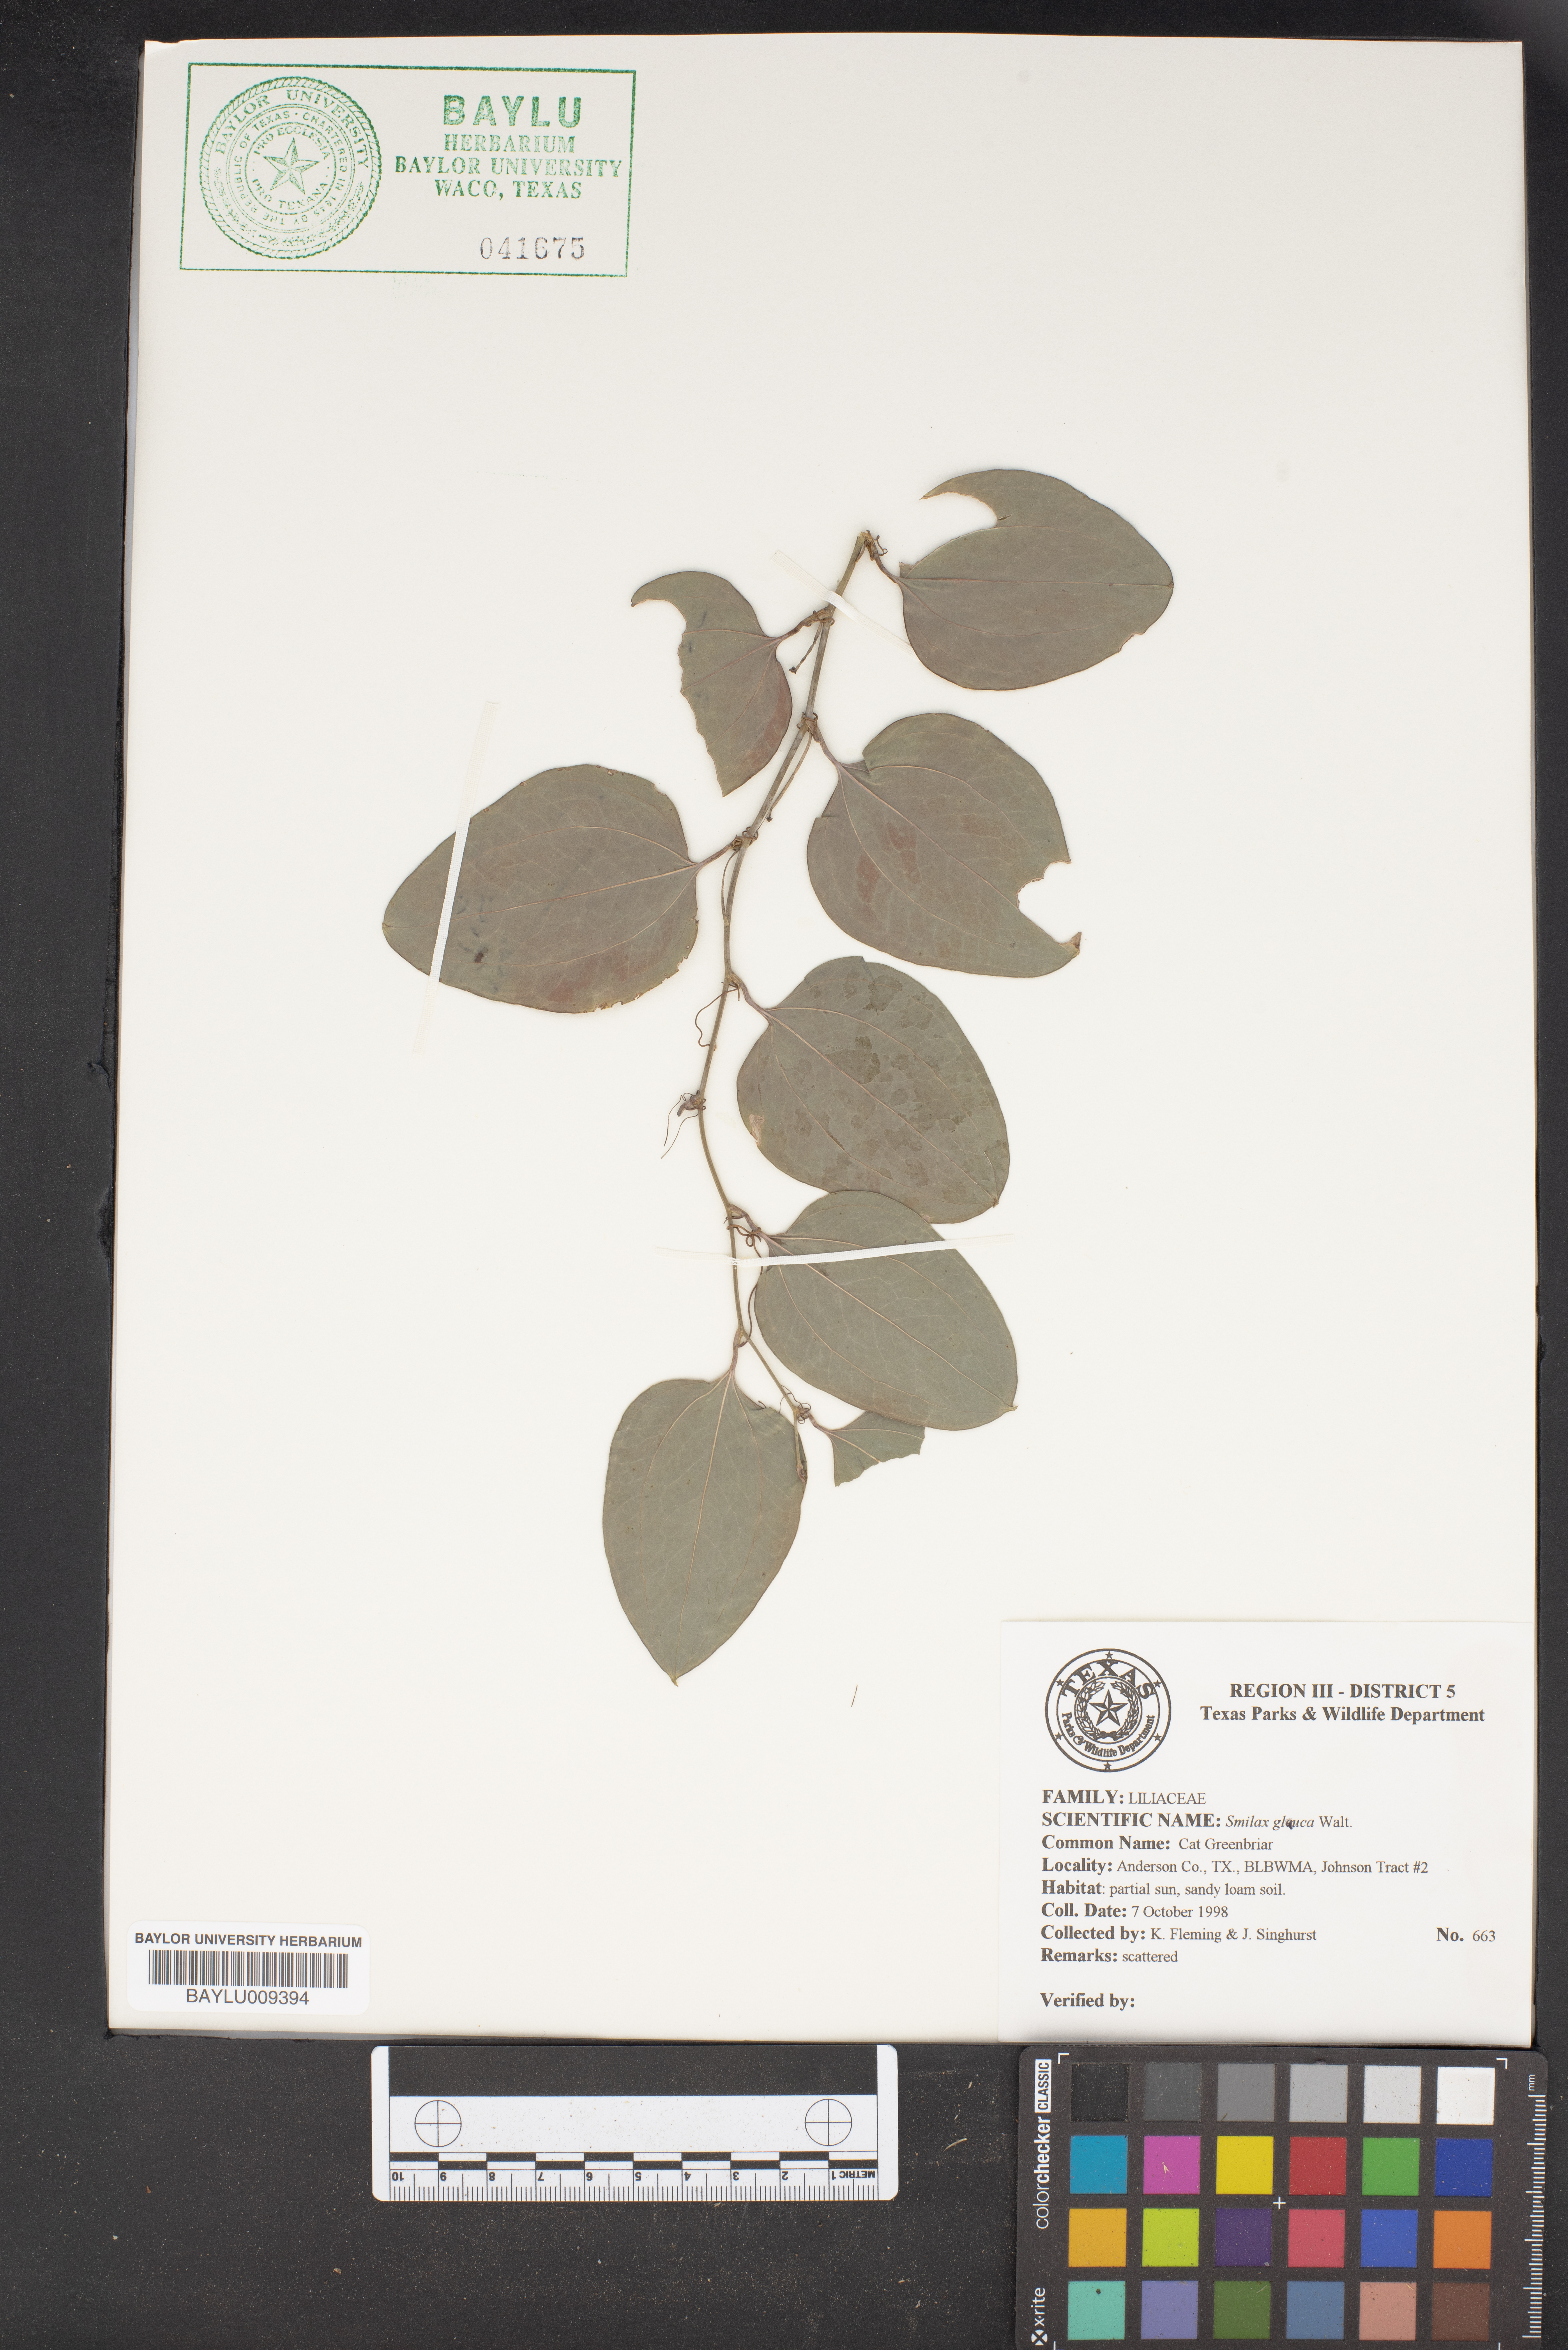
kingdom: Plantae
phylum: Tracheophyta
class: Liliopsida
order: Liliales
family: Smilacaceae
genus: Smilax
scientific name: Smilax glauca
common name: Cat greenbrier
